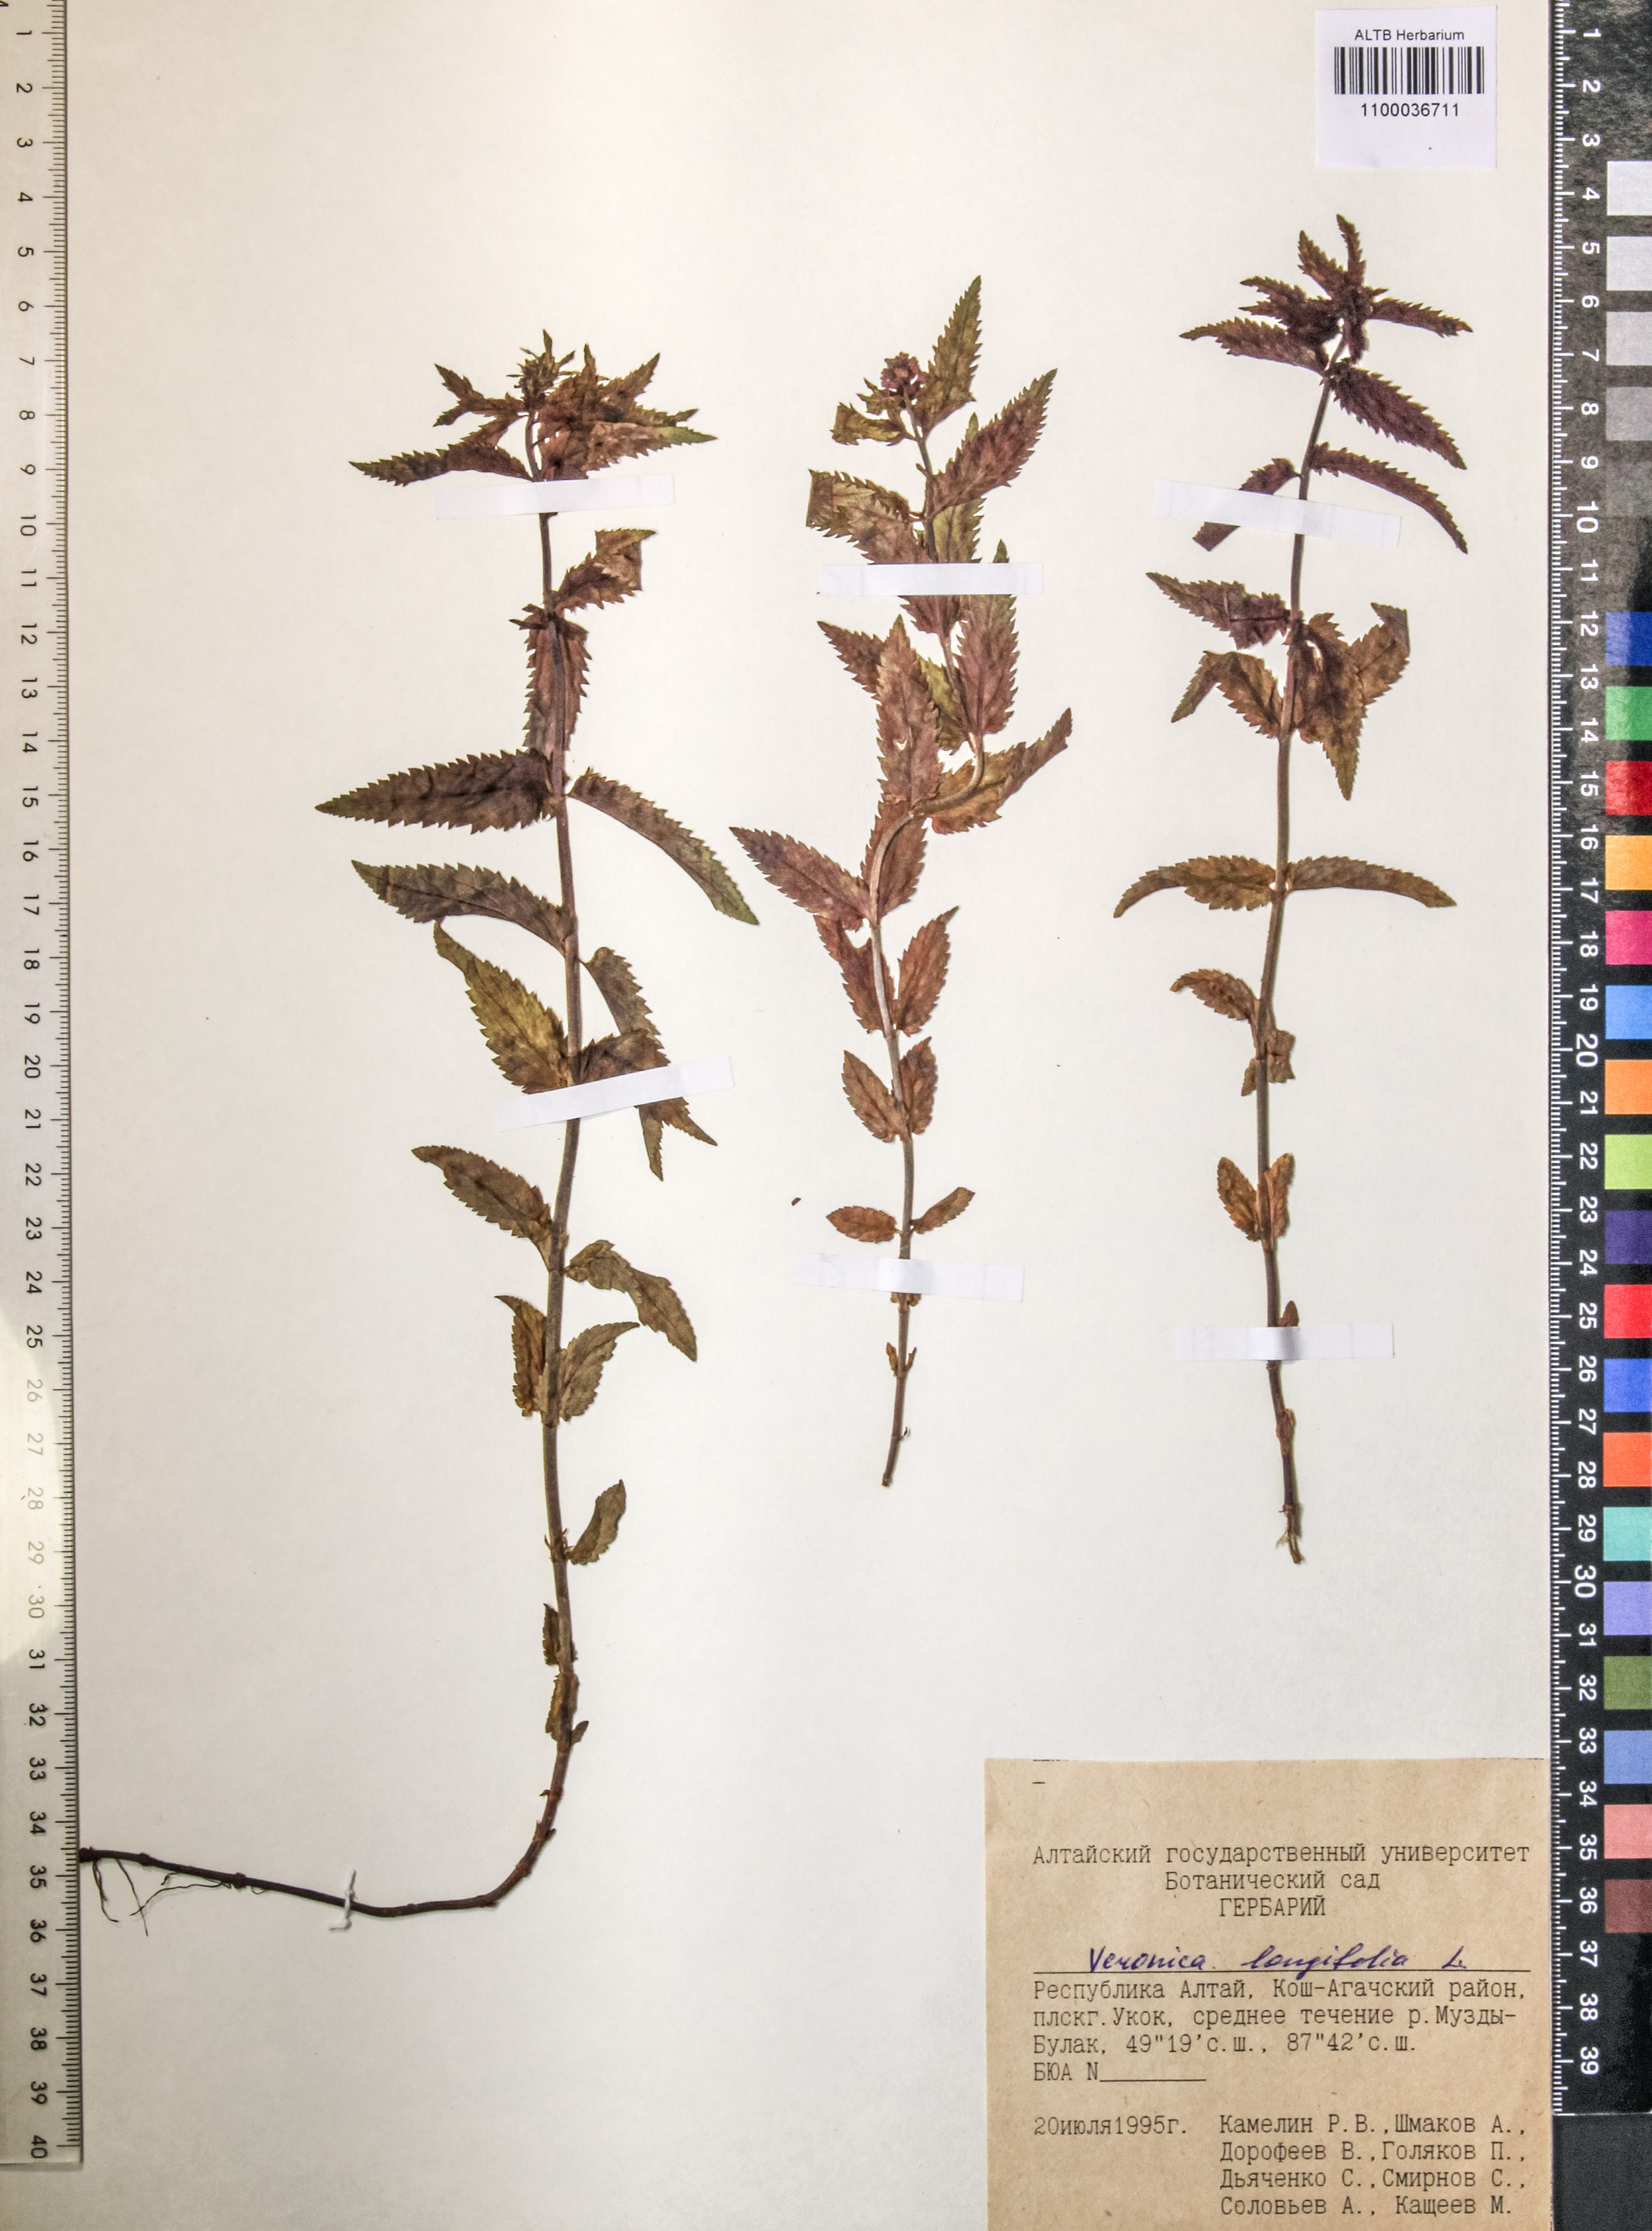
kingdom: Plantae
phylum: Tracheophyta
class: Magnoliopsida
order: Lamiales
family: Plantaginaceae
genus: Veronica
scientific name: Veronica longifolia
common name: Garden speedwell
